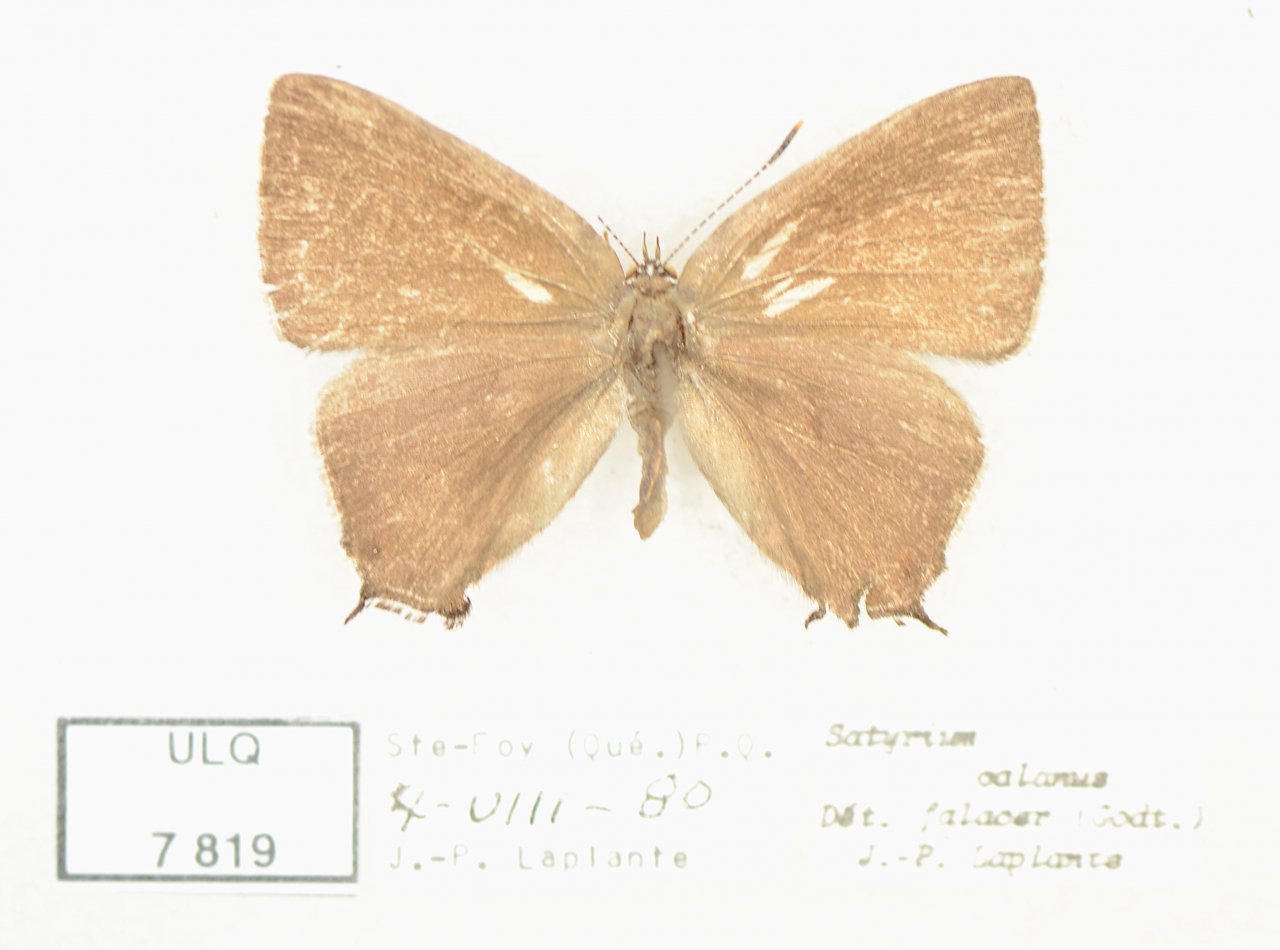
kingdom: Animalia
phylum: Arthropoda
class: Insecta
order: Lepidoptera
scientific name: Lepidoptera
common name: Butterflies
